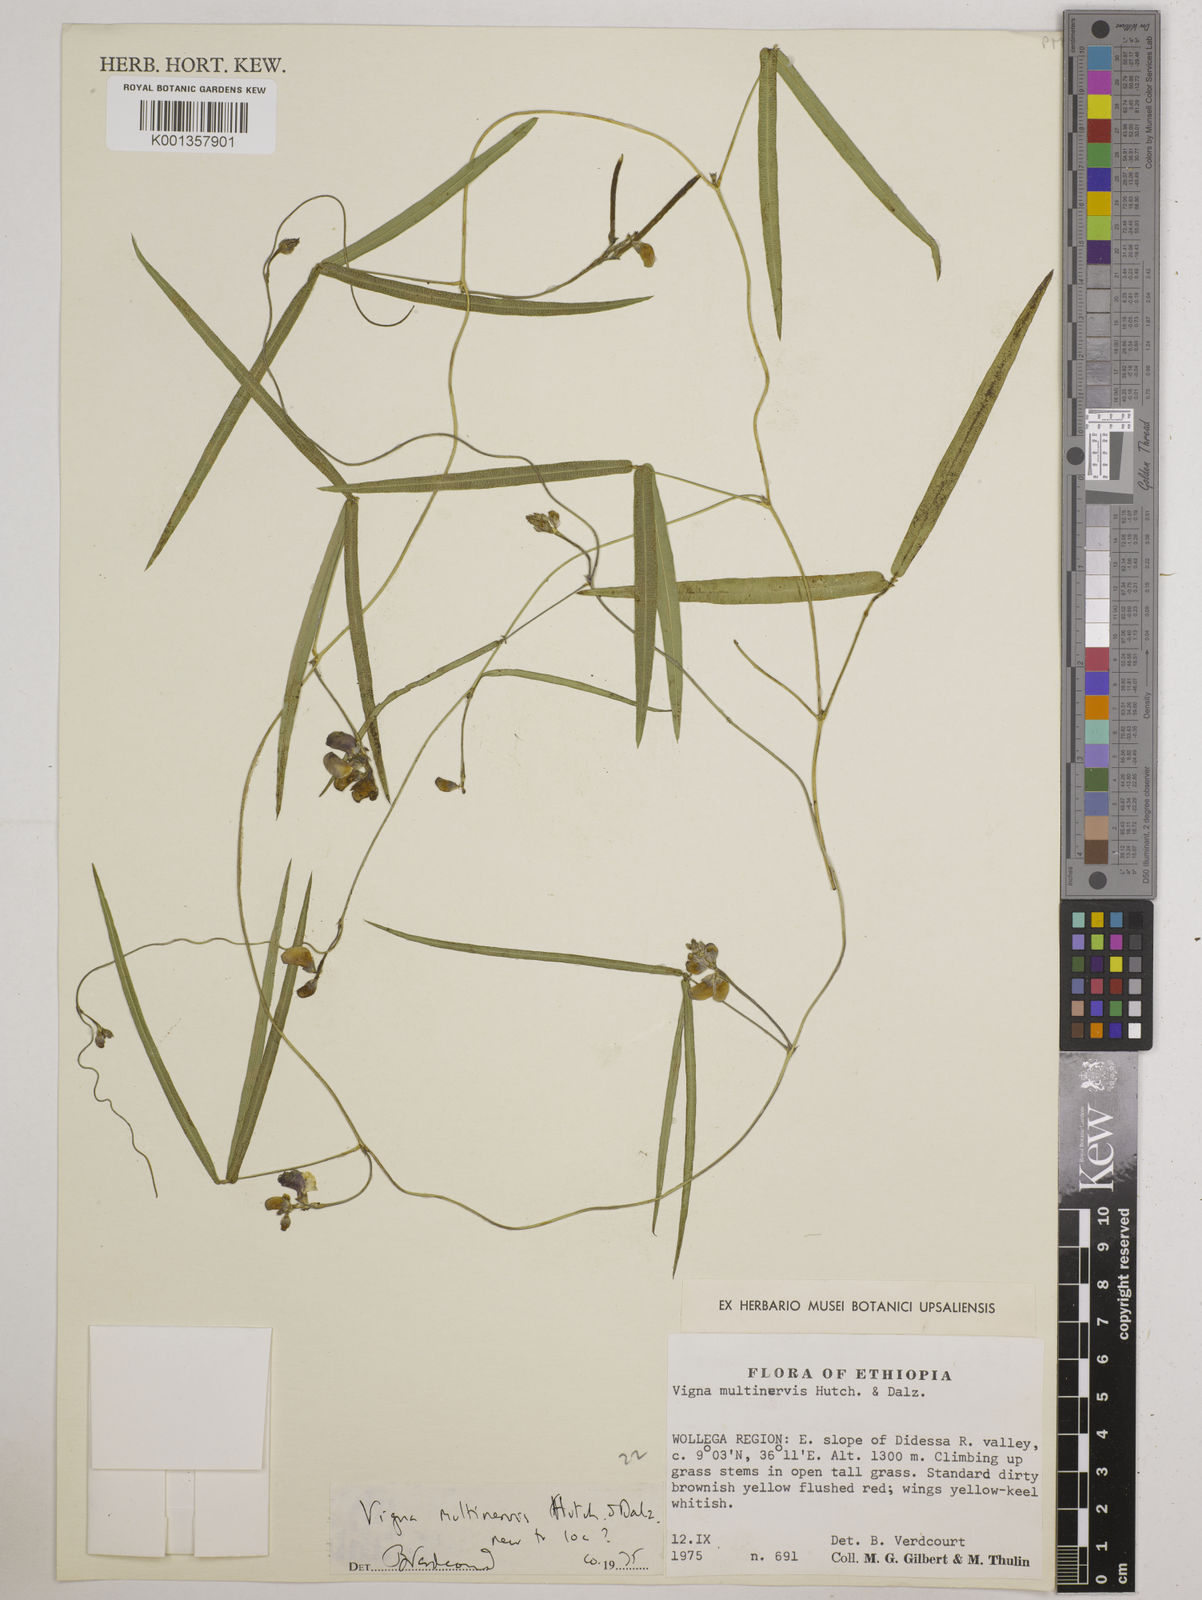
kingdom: Plantae
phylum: Tracheophyta
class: Magnoliopsida
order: Fabales
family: Fabaceae
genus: Vigna
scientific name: Vigna multinervis
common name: Fula-pulaar
